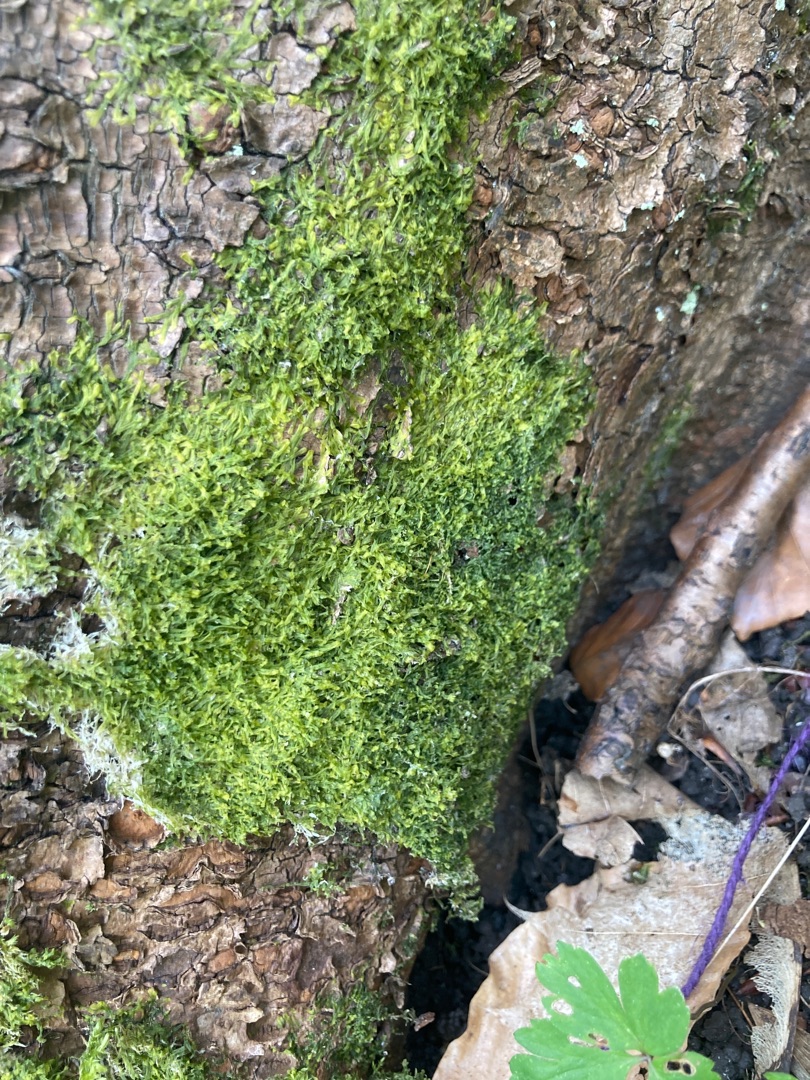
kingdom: Plantae
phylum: Marchantiophyta
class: Jungermanniopsida
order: Metzgeriales
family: Metzgeriaceae
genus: Metzgeria
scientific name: Metzgeria furcata
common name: Almindelig gaffelløv
